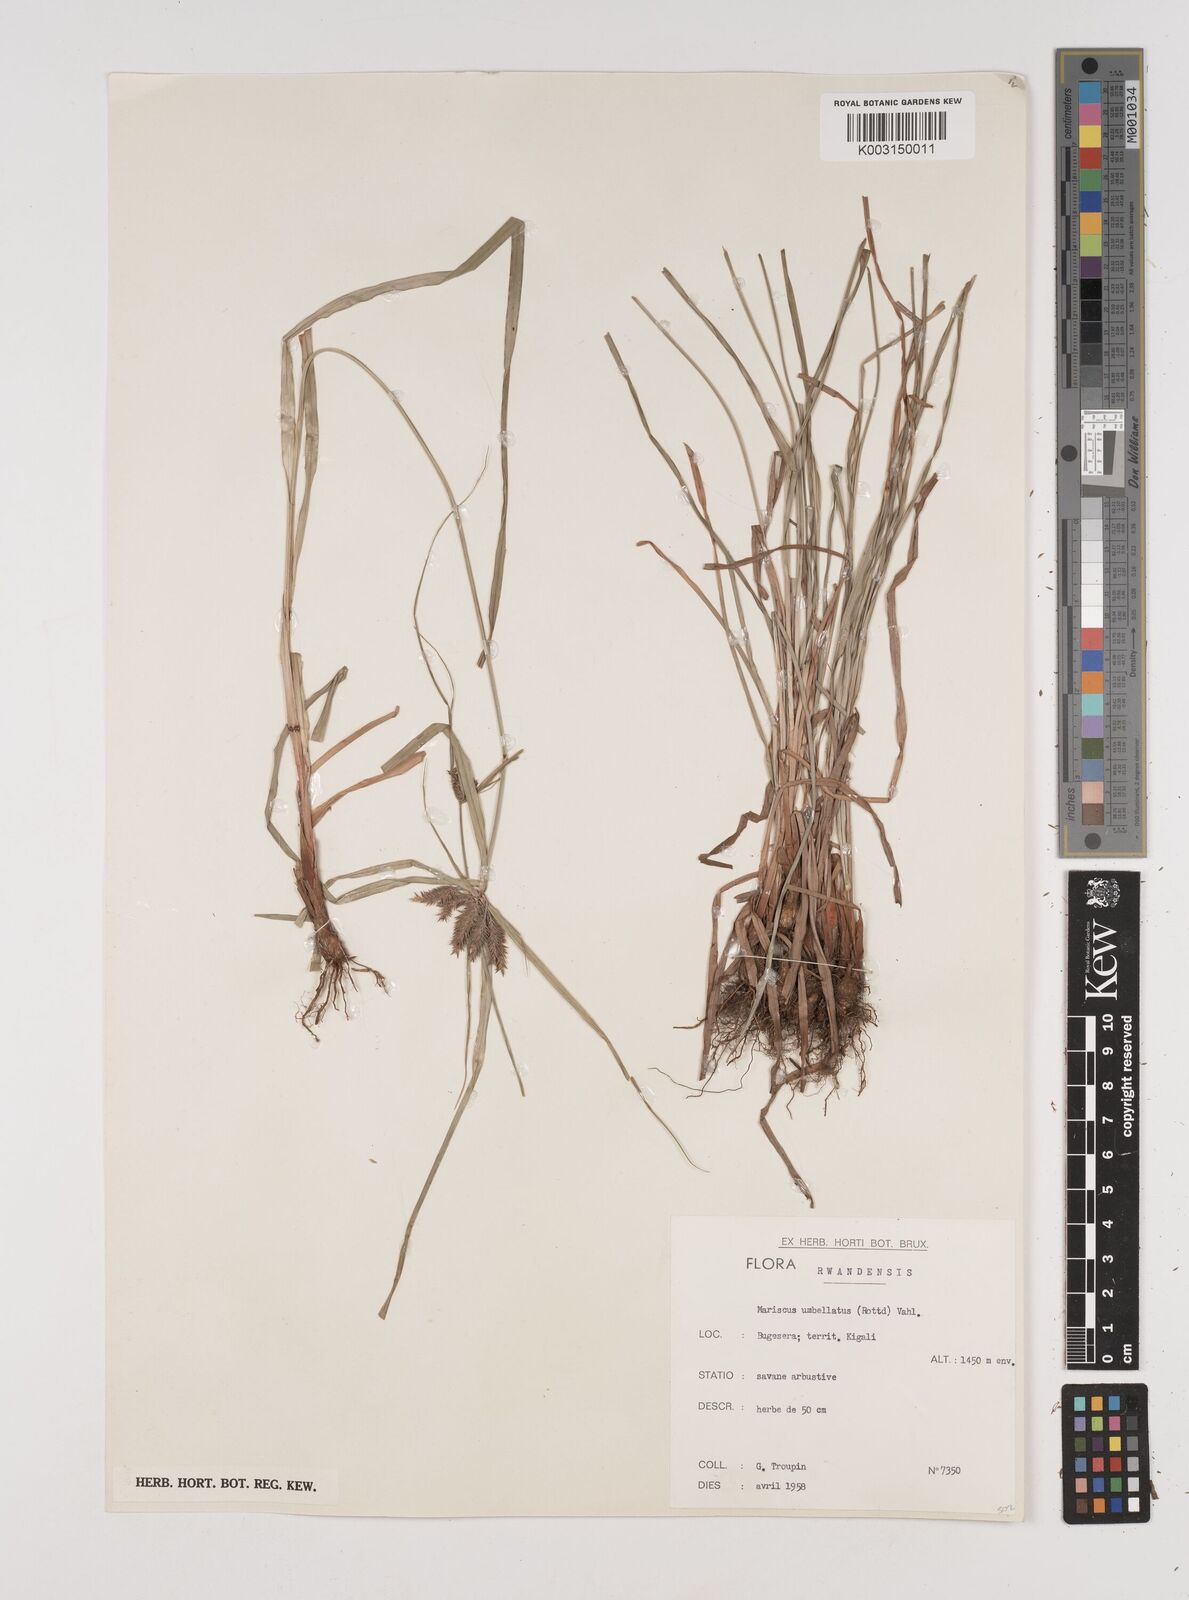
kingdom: Plantae
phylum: Tracheophyta
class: Liliopsida
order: Poales
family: Cyperaceae
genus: Cyperus
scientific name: Cyperus cyperoides
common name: Pacific island flat sedge
